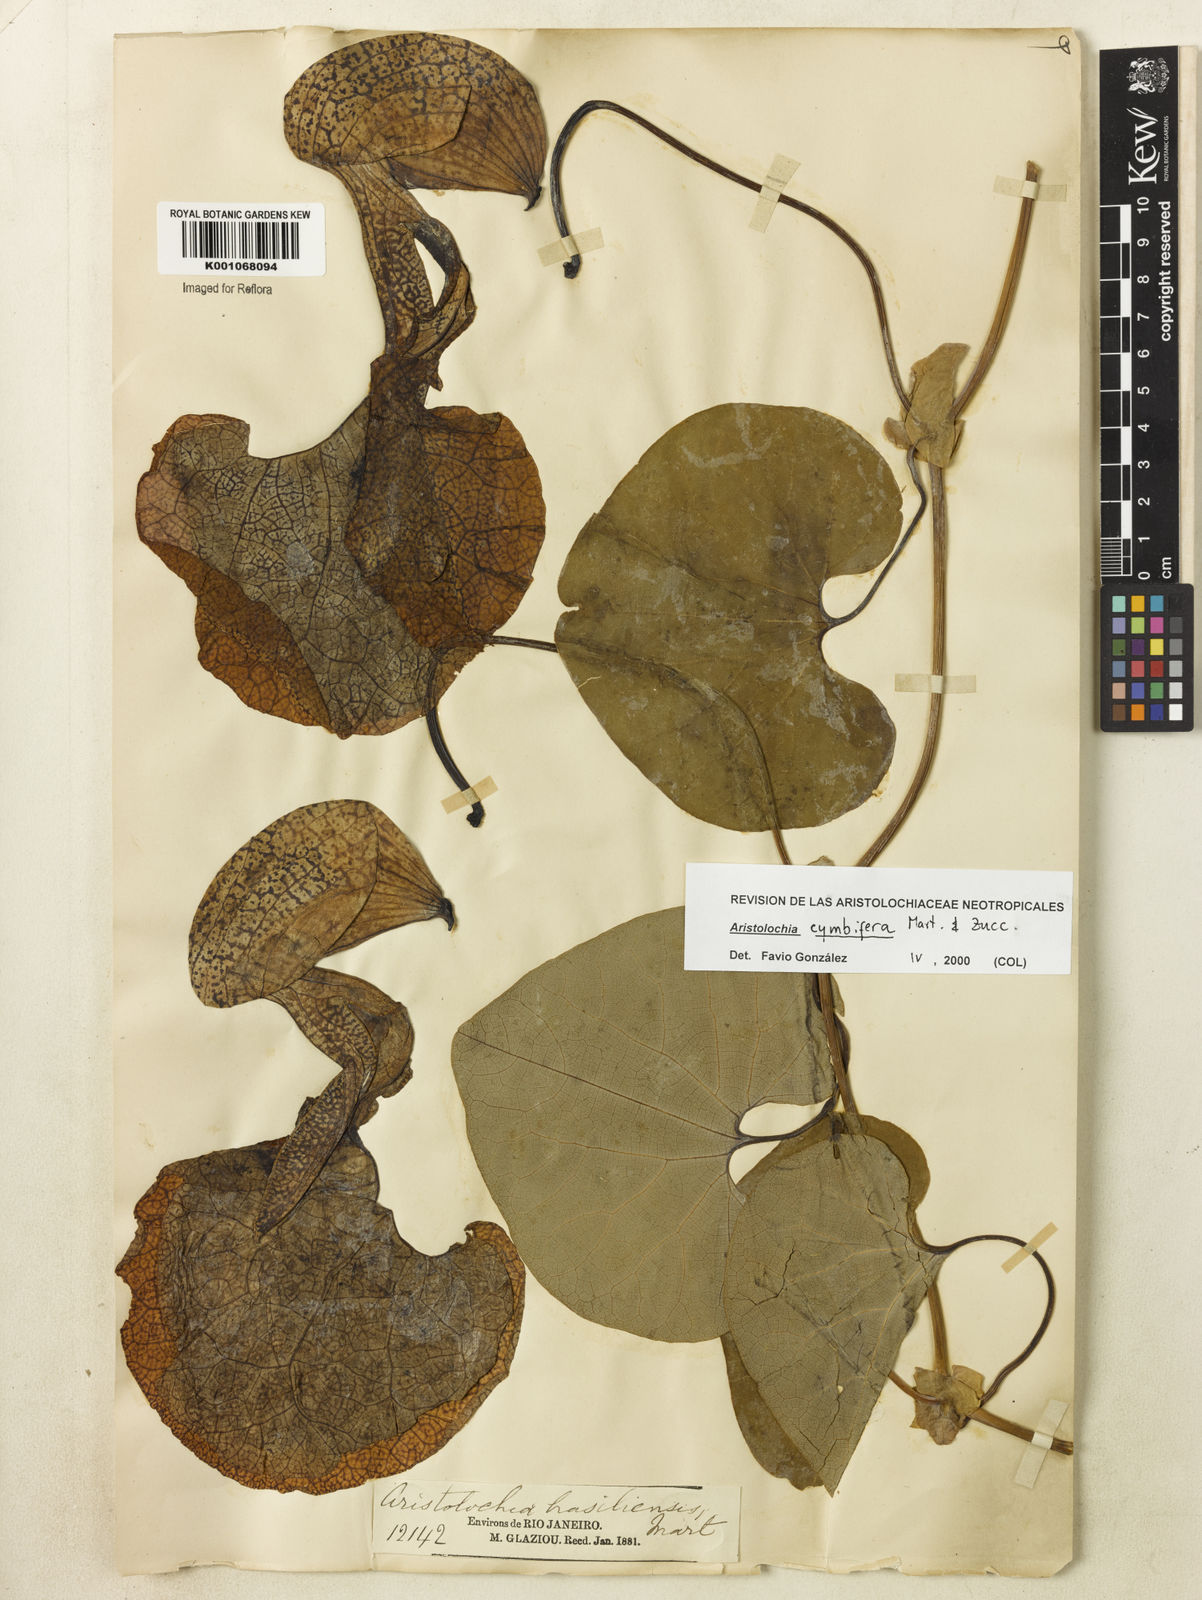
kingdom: Plantae
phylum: Tracheophyta
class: Magnoliopsida
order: Piperales
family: Aristolochiaceae
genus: Aristolochia
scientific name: Aristolochia cymbifera
